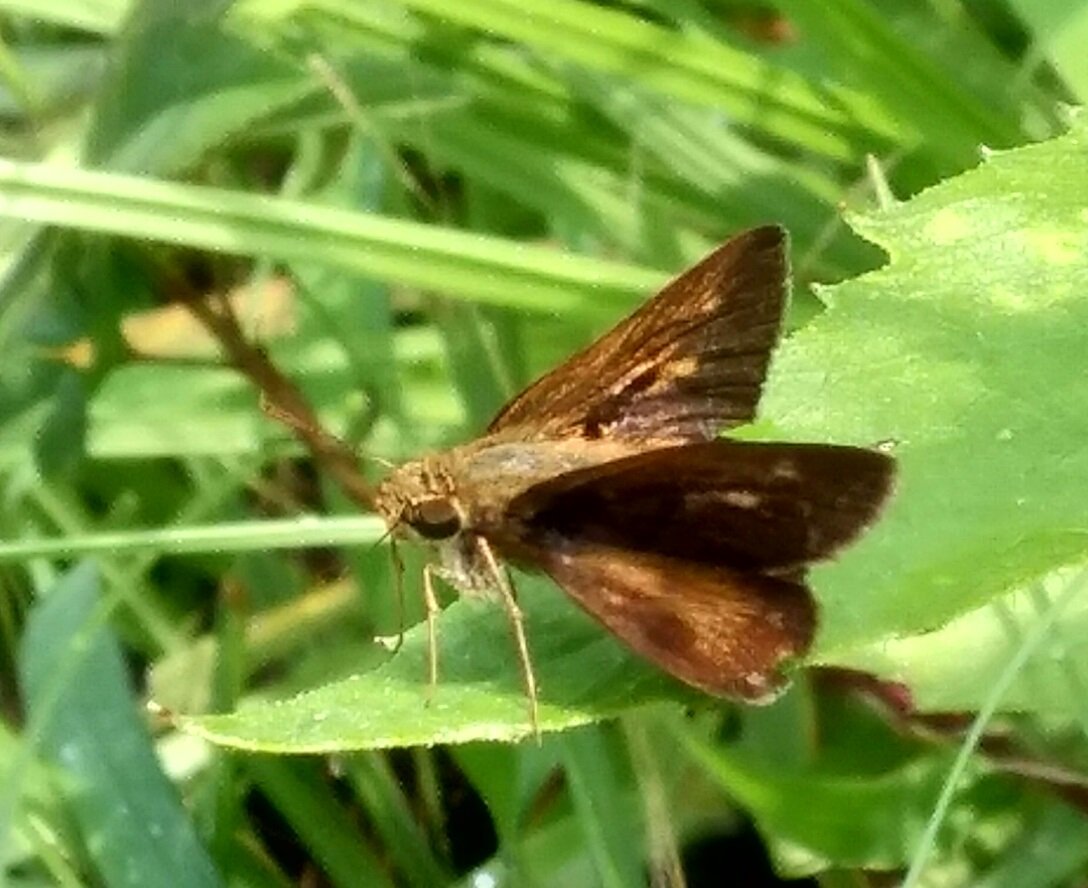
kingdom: Animalia
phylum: Arthropoda
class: Insecta
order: Lepidoptera
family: Hesperiidae
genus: Polites
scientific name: Polites egeremet
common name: Northern Broken-Dash
